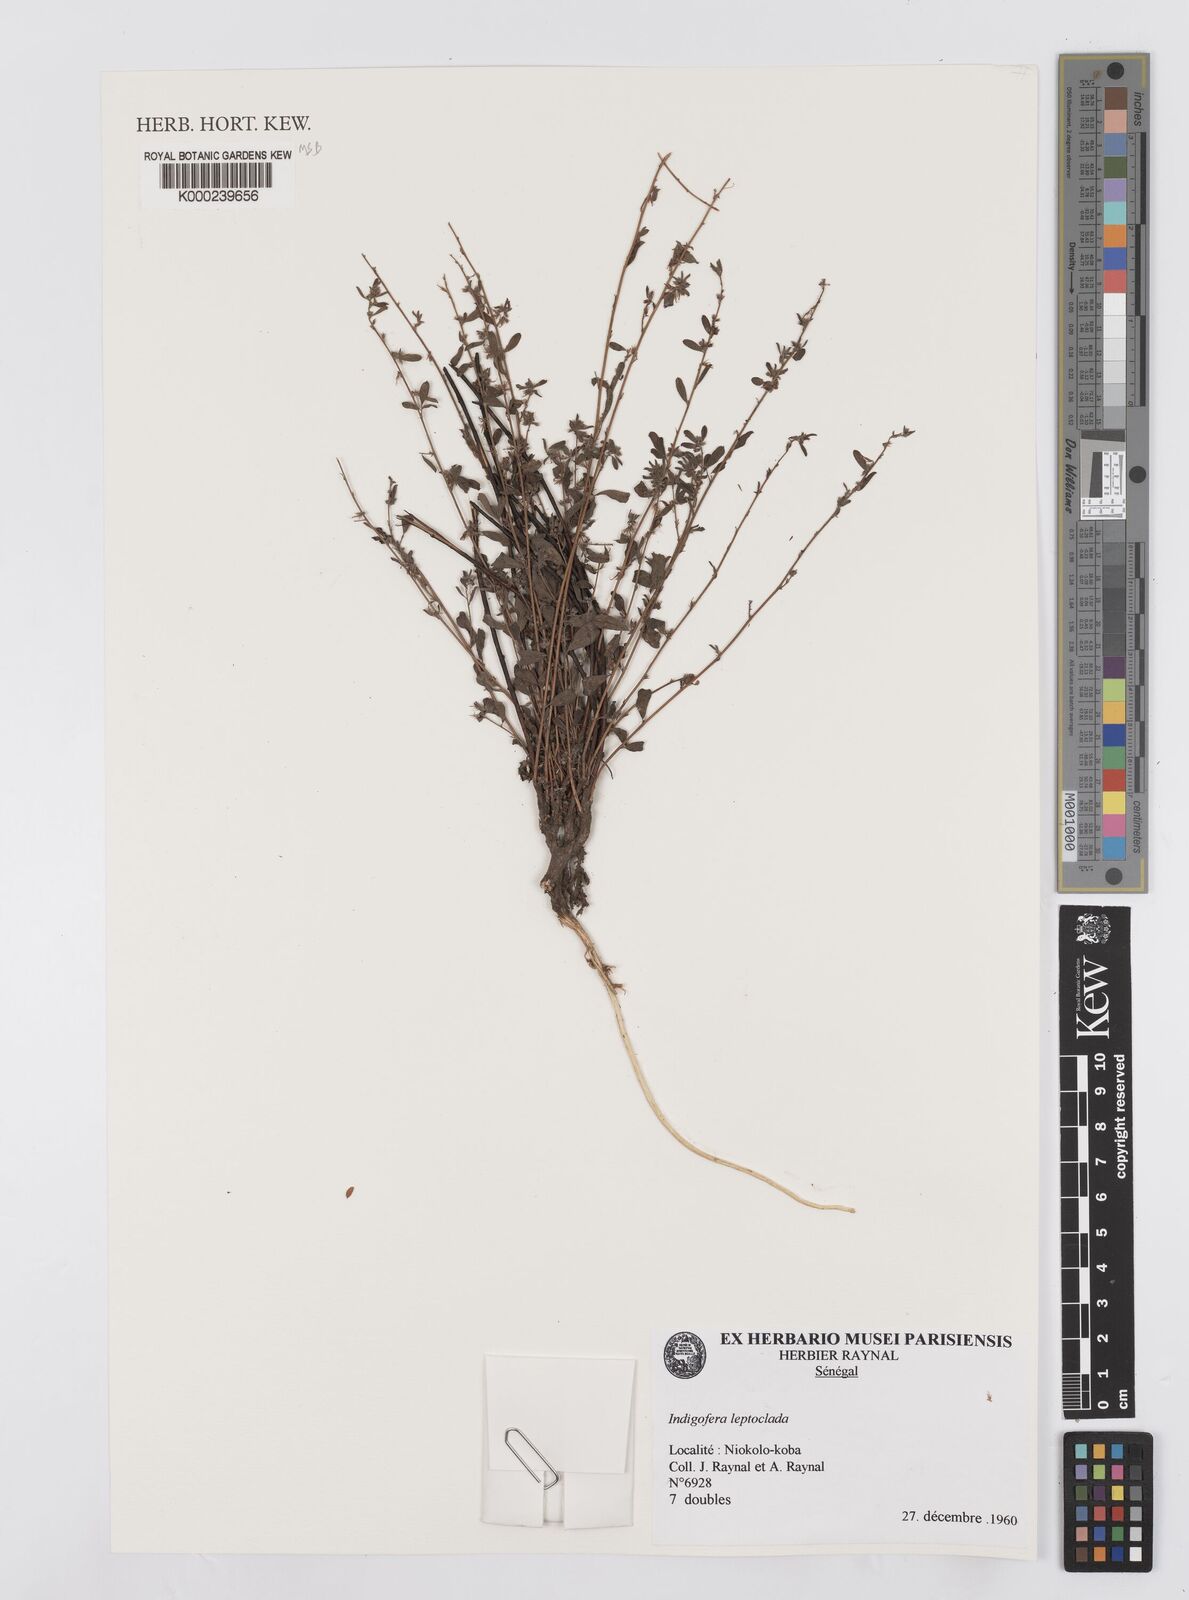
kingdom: Plantae
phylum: Tracheophyta
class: Magnoliopsida
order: Fabales
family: Fabaceae
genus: Indigofera
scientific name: Indigofera leptoclada
